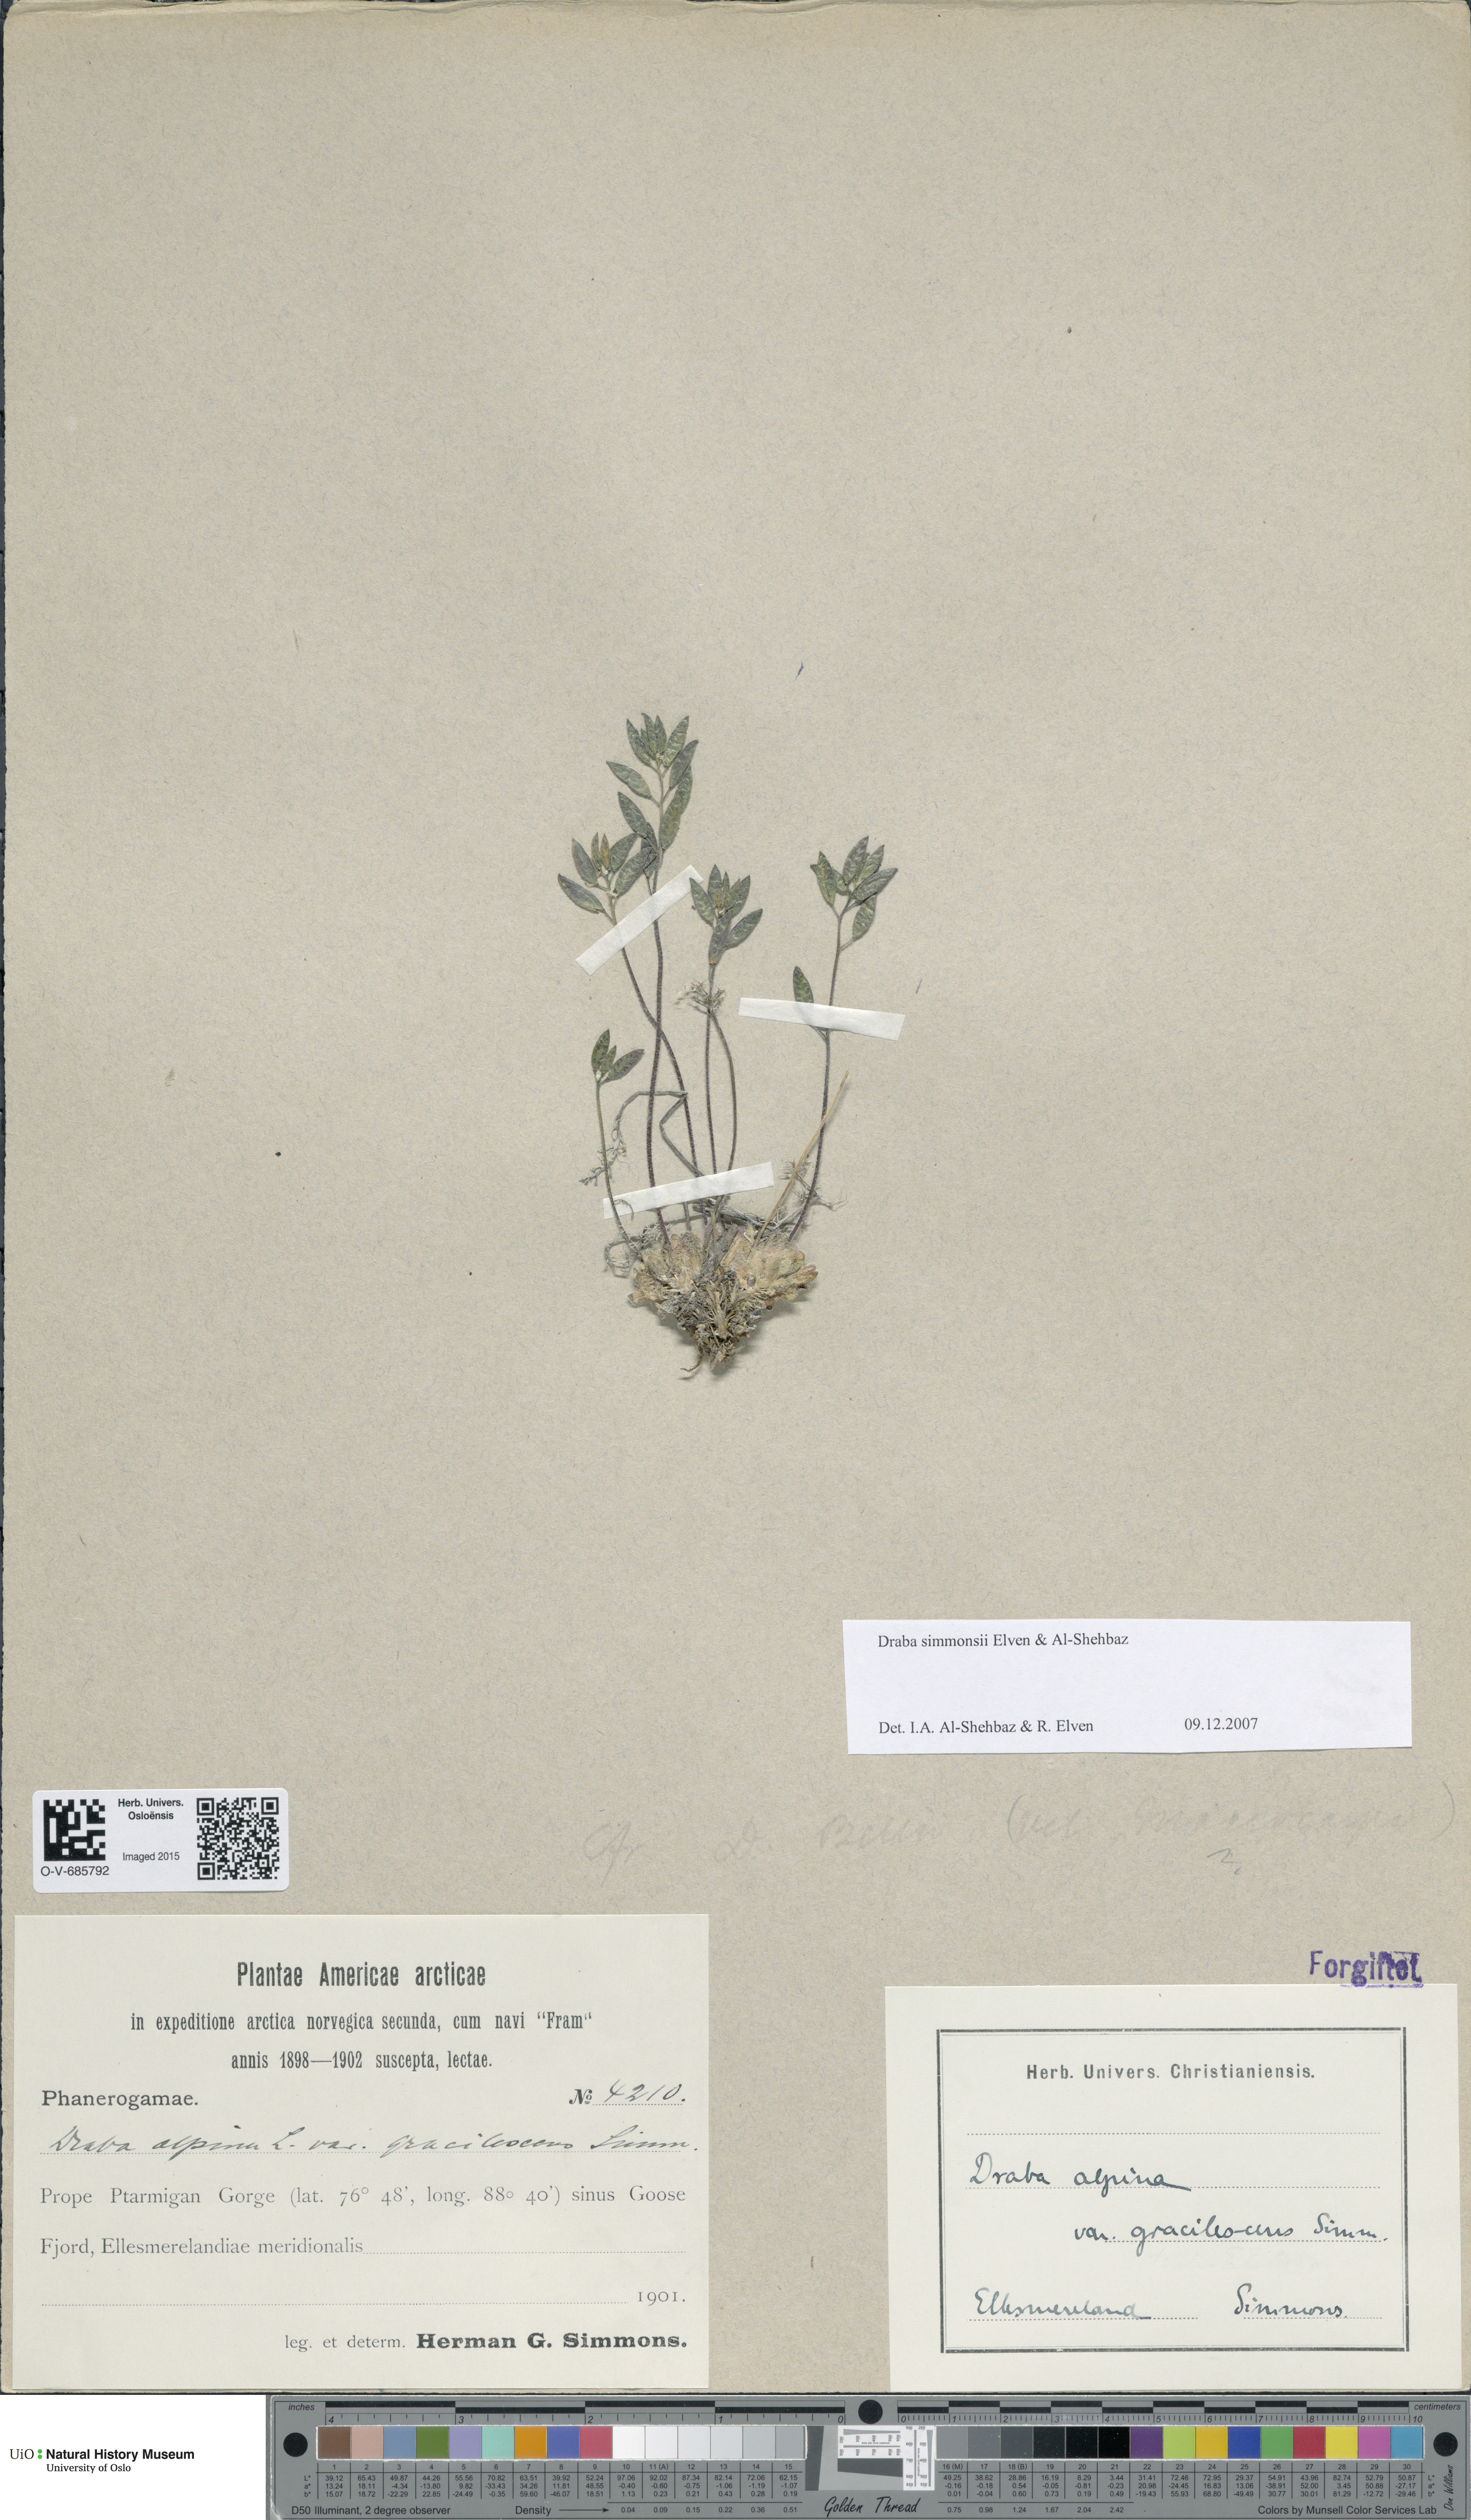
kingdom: Plantae
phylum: Tracheophyta
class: Magnoliopsida
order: Brassicales
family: Brassicaceae
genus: Draba
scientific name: Draba simmonsii
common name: Simmonds' whitlow-grass
